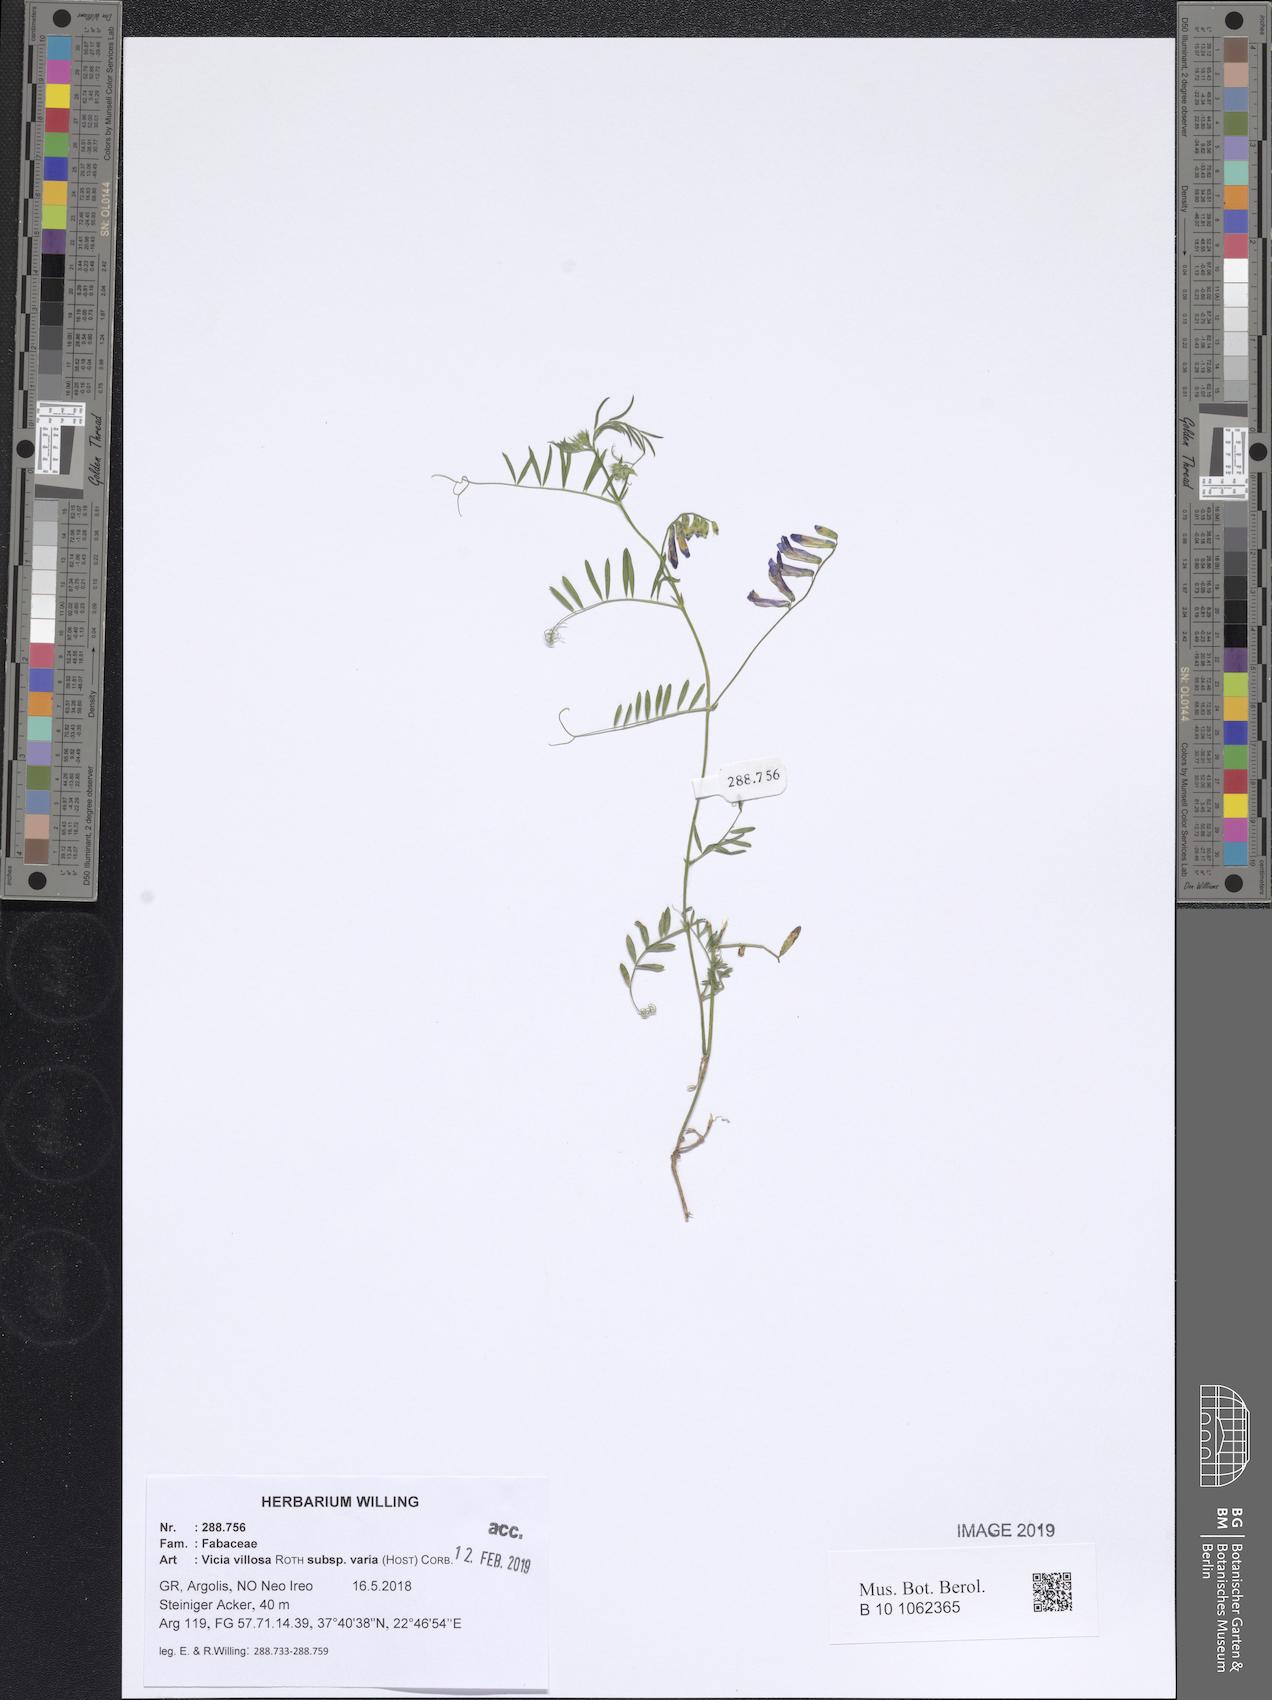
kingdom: Plantae
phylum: Tracheophyta
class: Magnoliopsida
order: Fabales
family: Fabaceae
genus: Vicia
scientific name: Vicia villosa
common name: Fodder vetch
